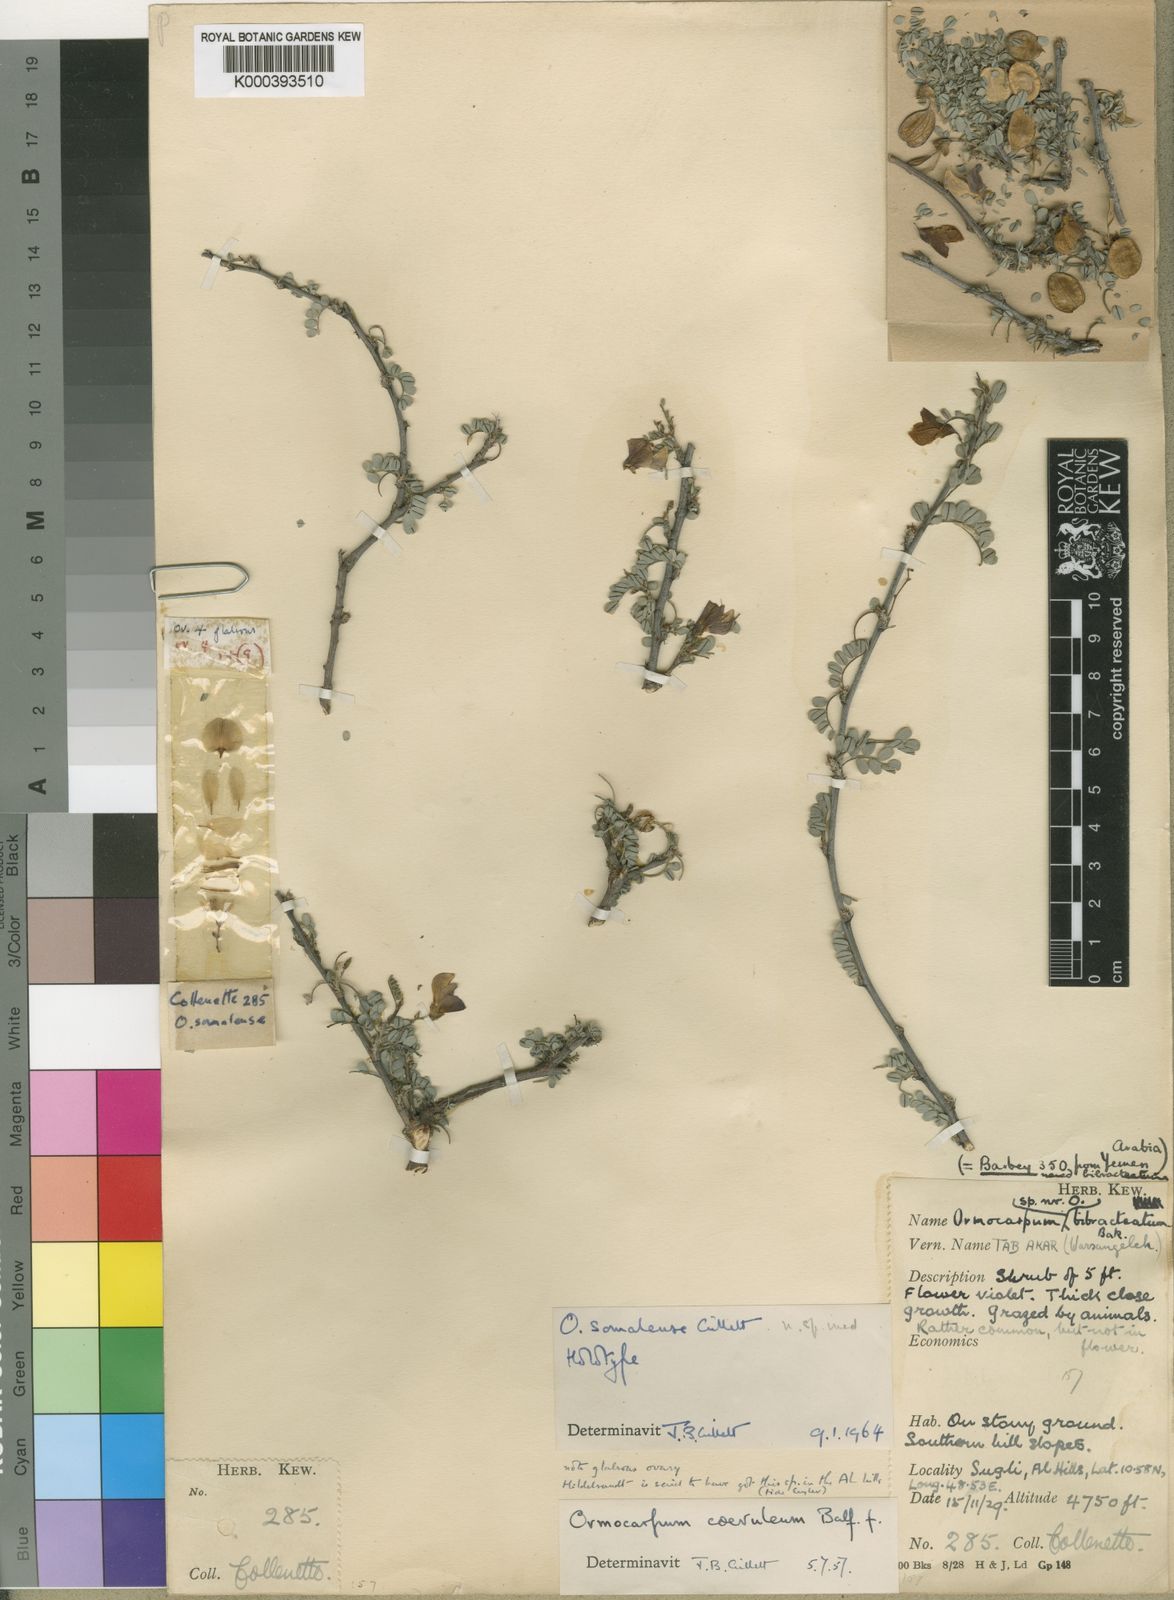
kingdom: Plantae
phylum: Tracheophyta
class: Magnoliopsida
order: Fabales
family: Fabaceae
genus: Zygocarpum
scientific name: Zygocarpum somalense
